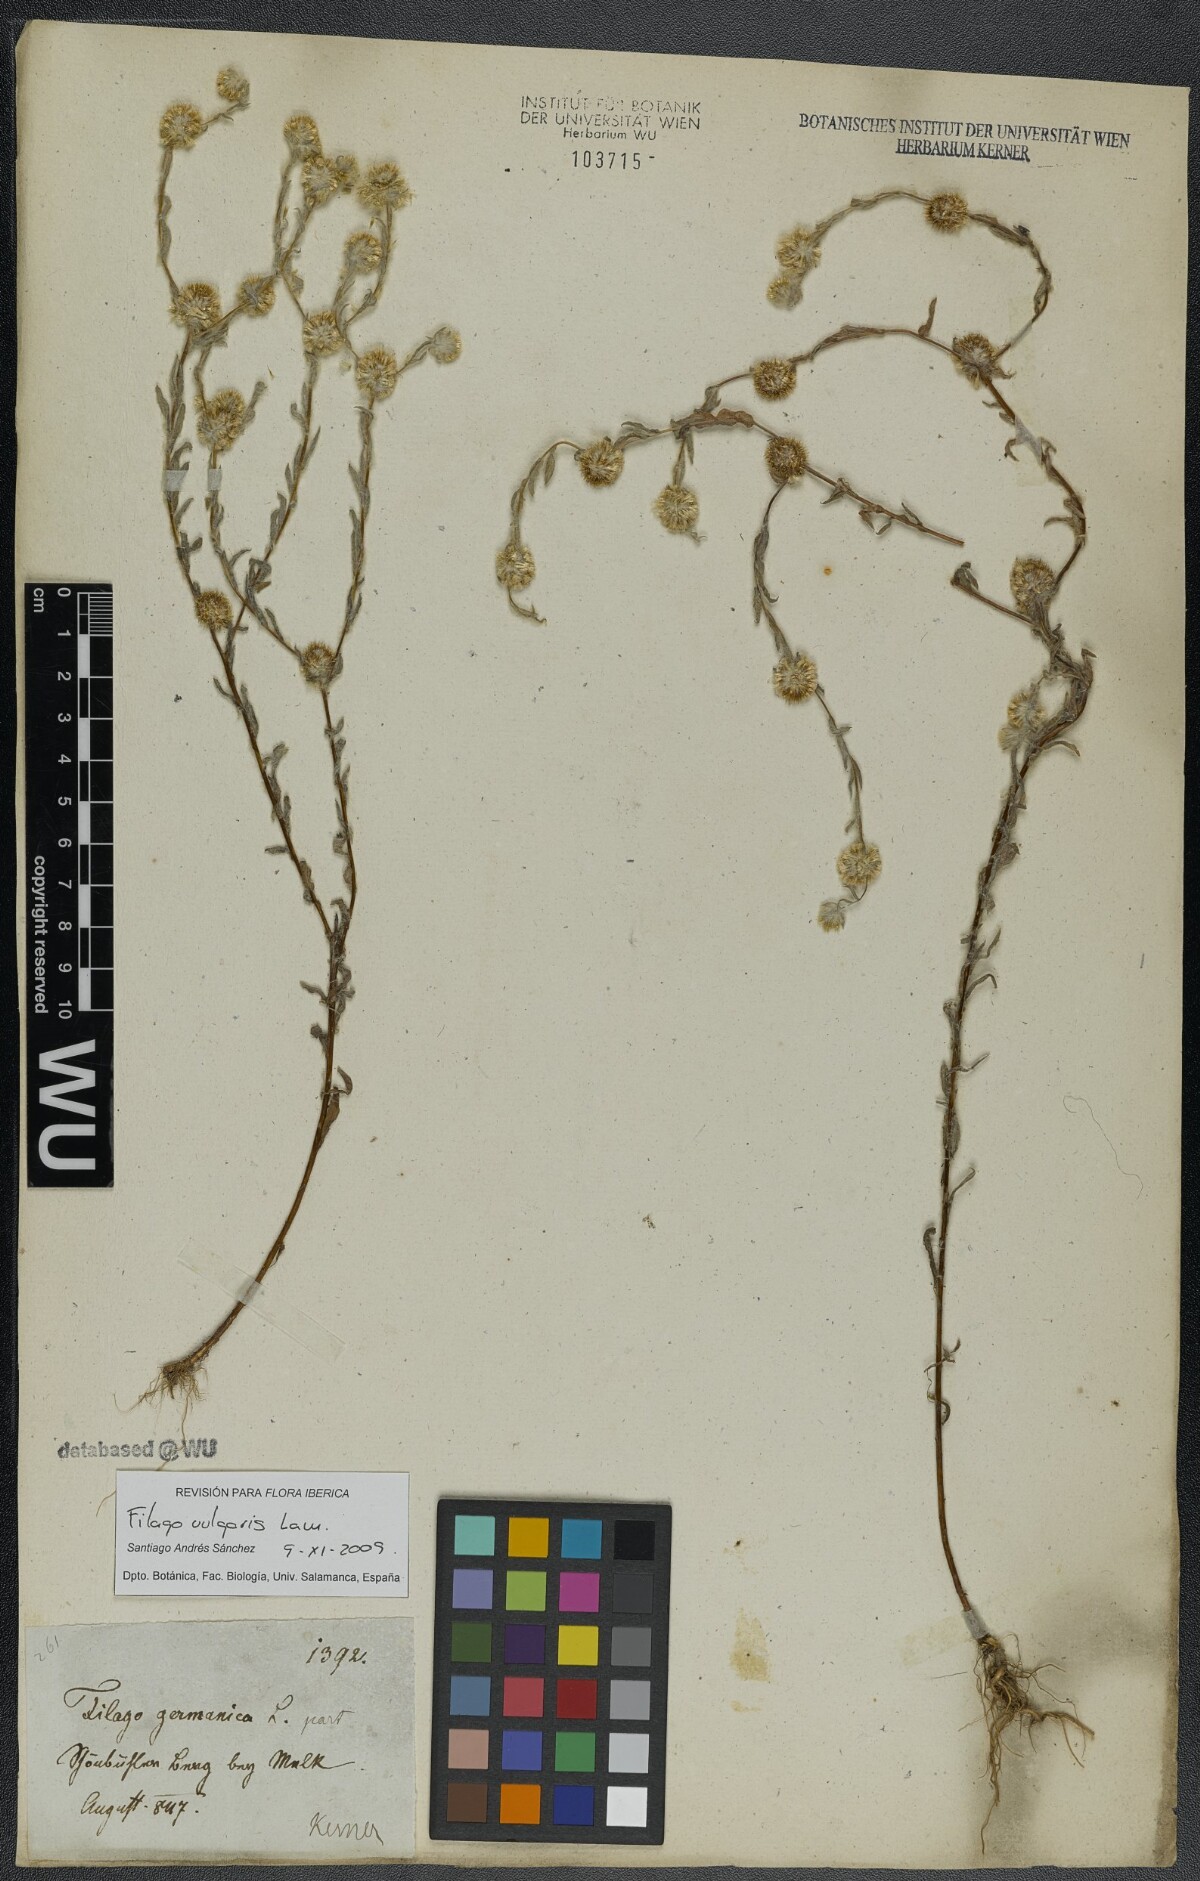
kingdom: Plantae
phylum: Tracheophyta
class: Magnoliopsida
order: Asterales
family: Asteraceae
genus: Filago
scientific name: Filago germanica
